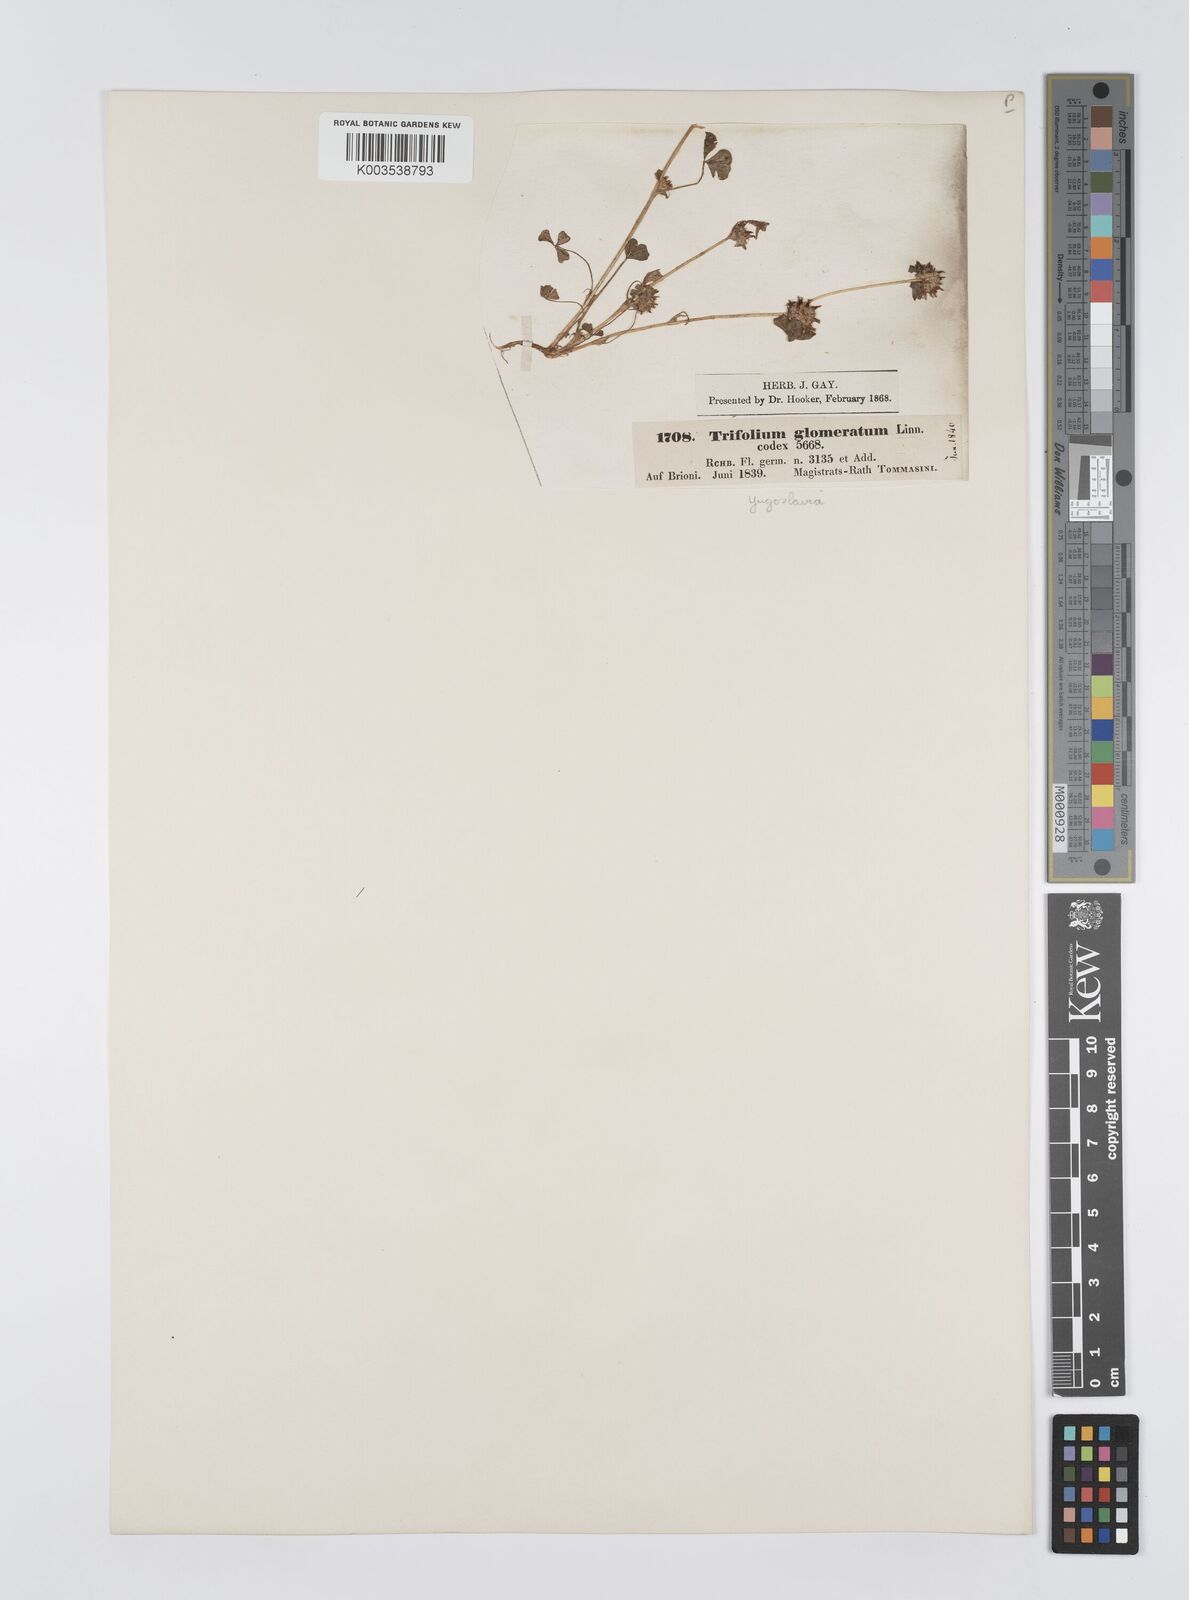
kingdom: Plantae
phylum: Tracheophyta
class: Magnoliopsida
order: Fabales
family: Fabaceae
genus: Trifolium
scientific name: Trifolium glomeratum
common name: Clustered clover
